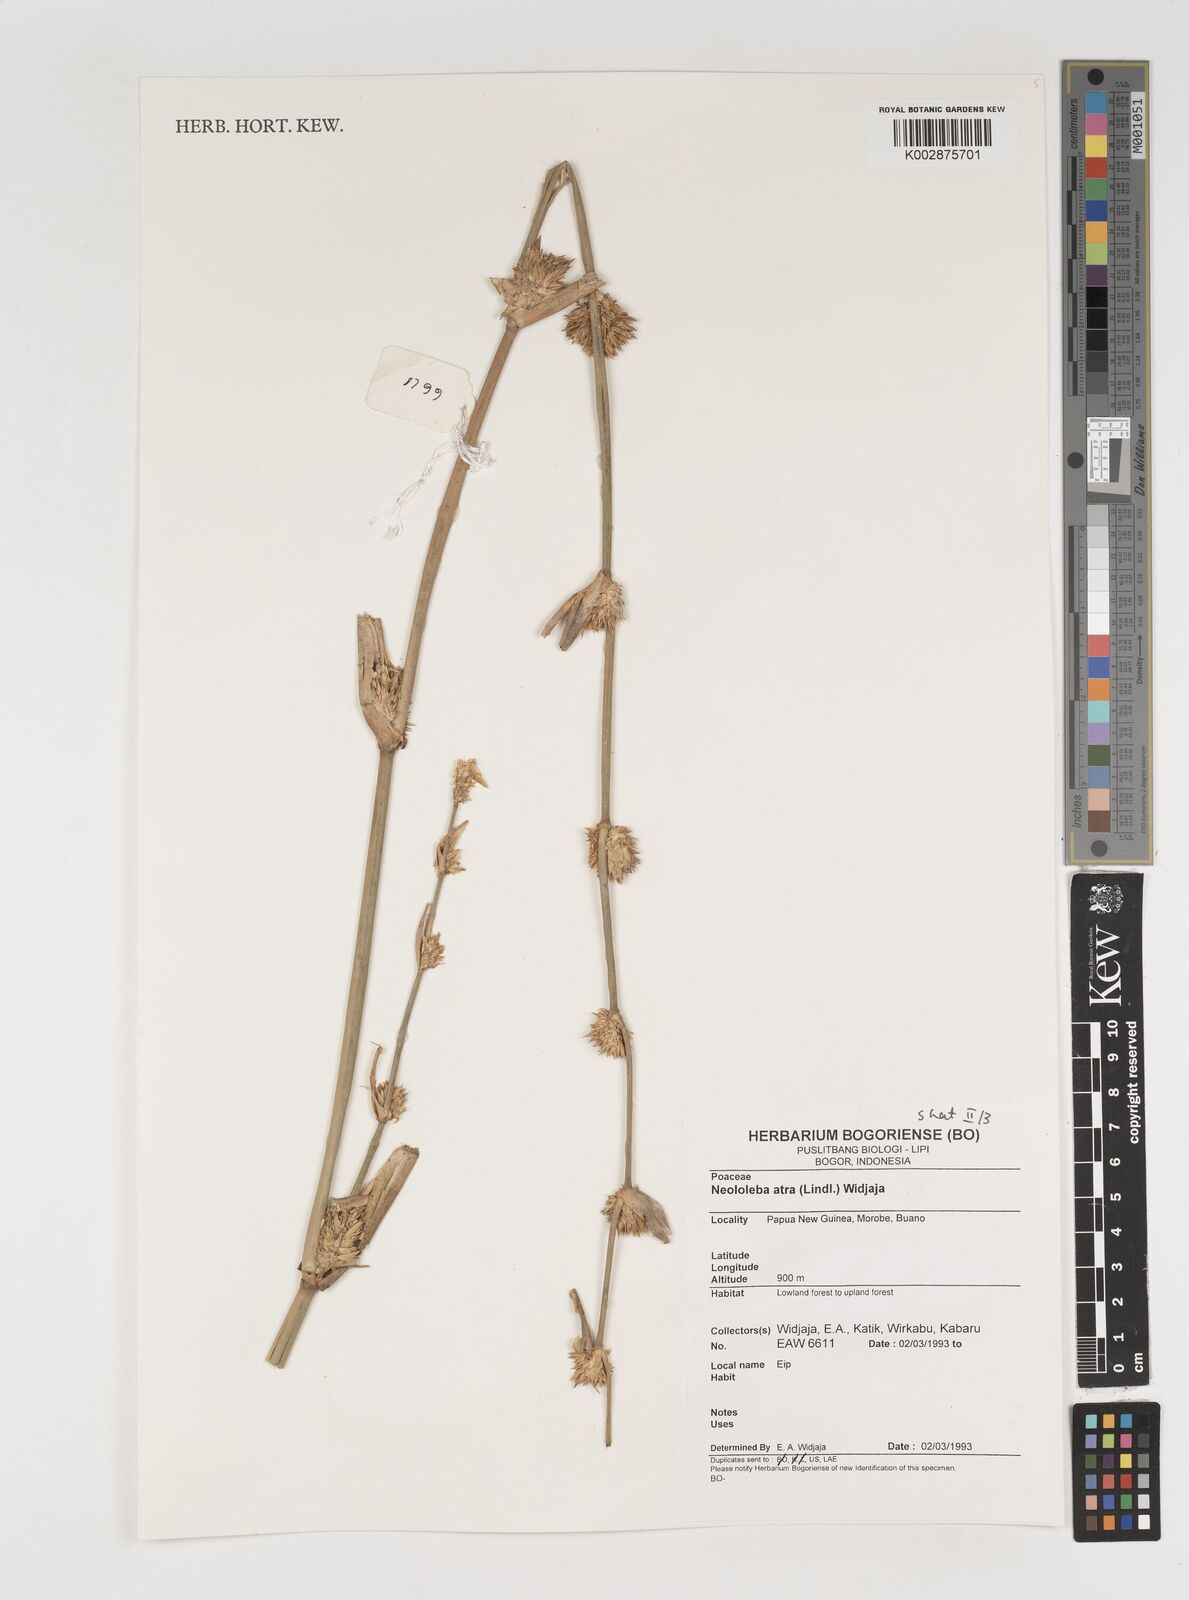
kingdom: Plantae
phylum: Tracheophyta
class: Liliopsida
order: Poales
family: Poaceae
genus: Neololeba
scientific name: Neololeba atra
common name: Cape bamboo
